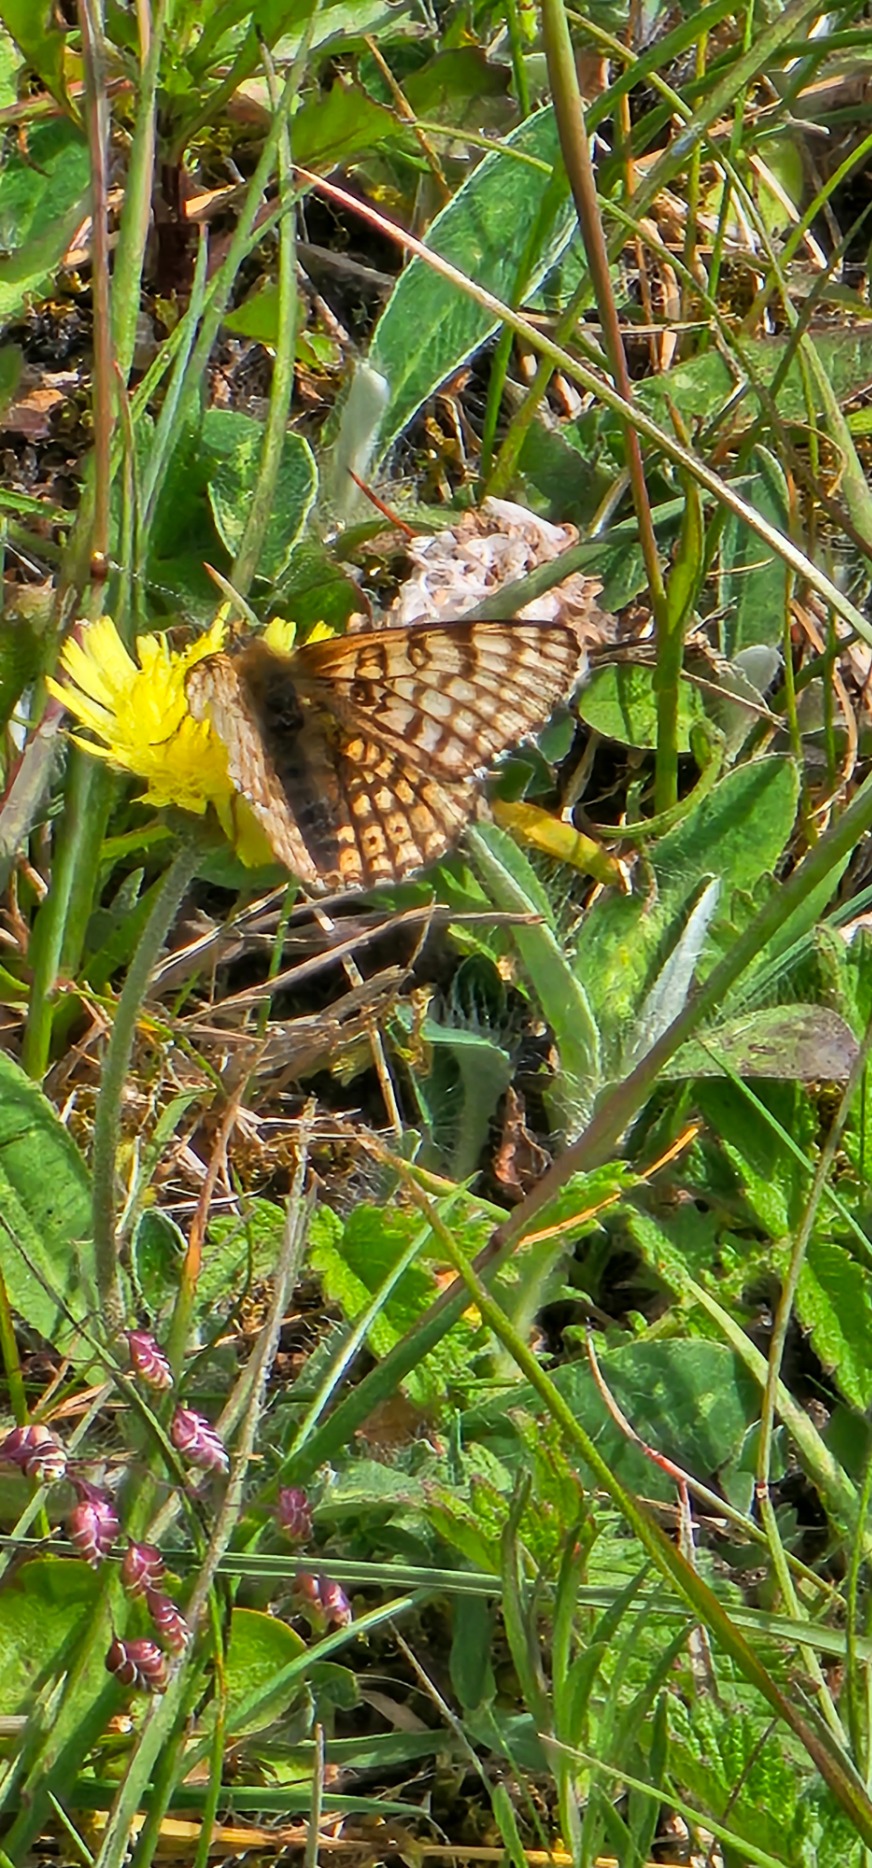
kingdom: Animalia
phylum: Arthropoda
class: Insecta
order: Lepidoptera
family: Nymphalidae
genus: Melitaea
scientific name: Melitaea cinxia
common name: Okkergul pletvinge
